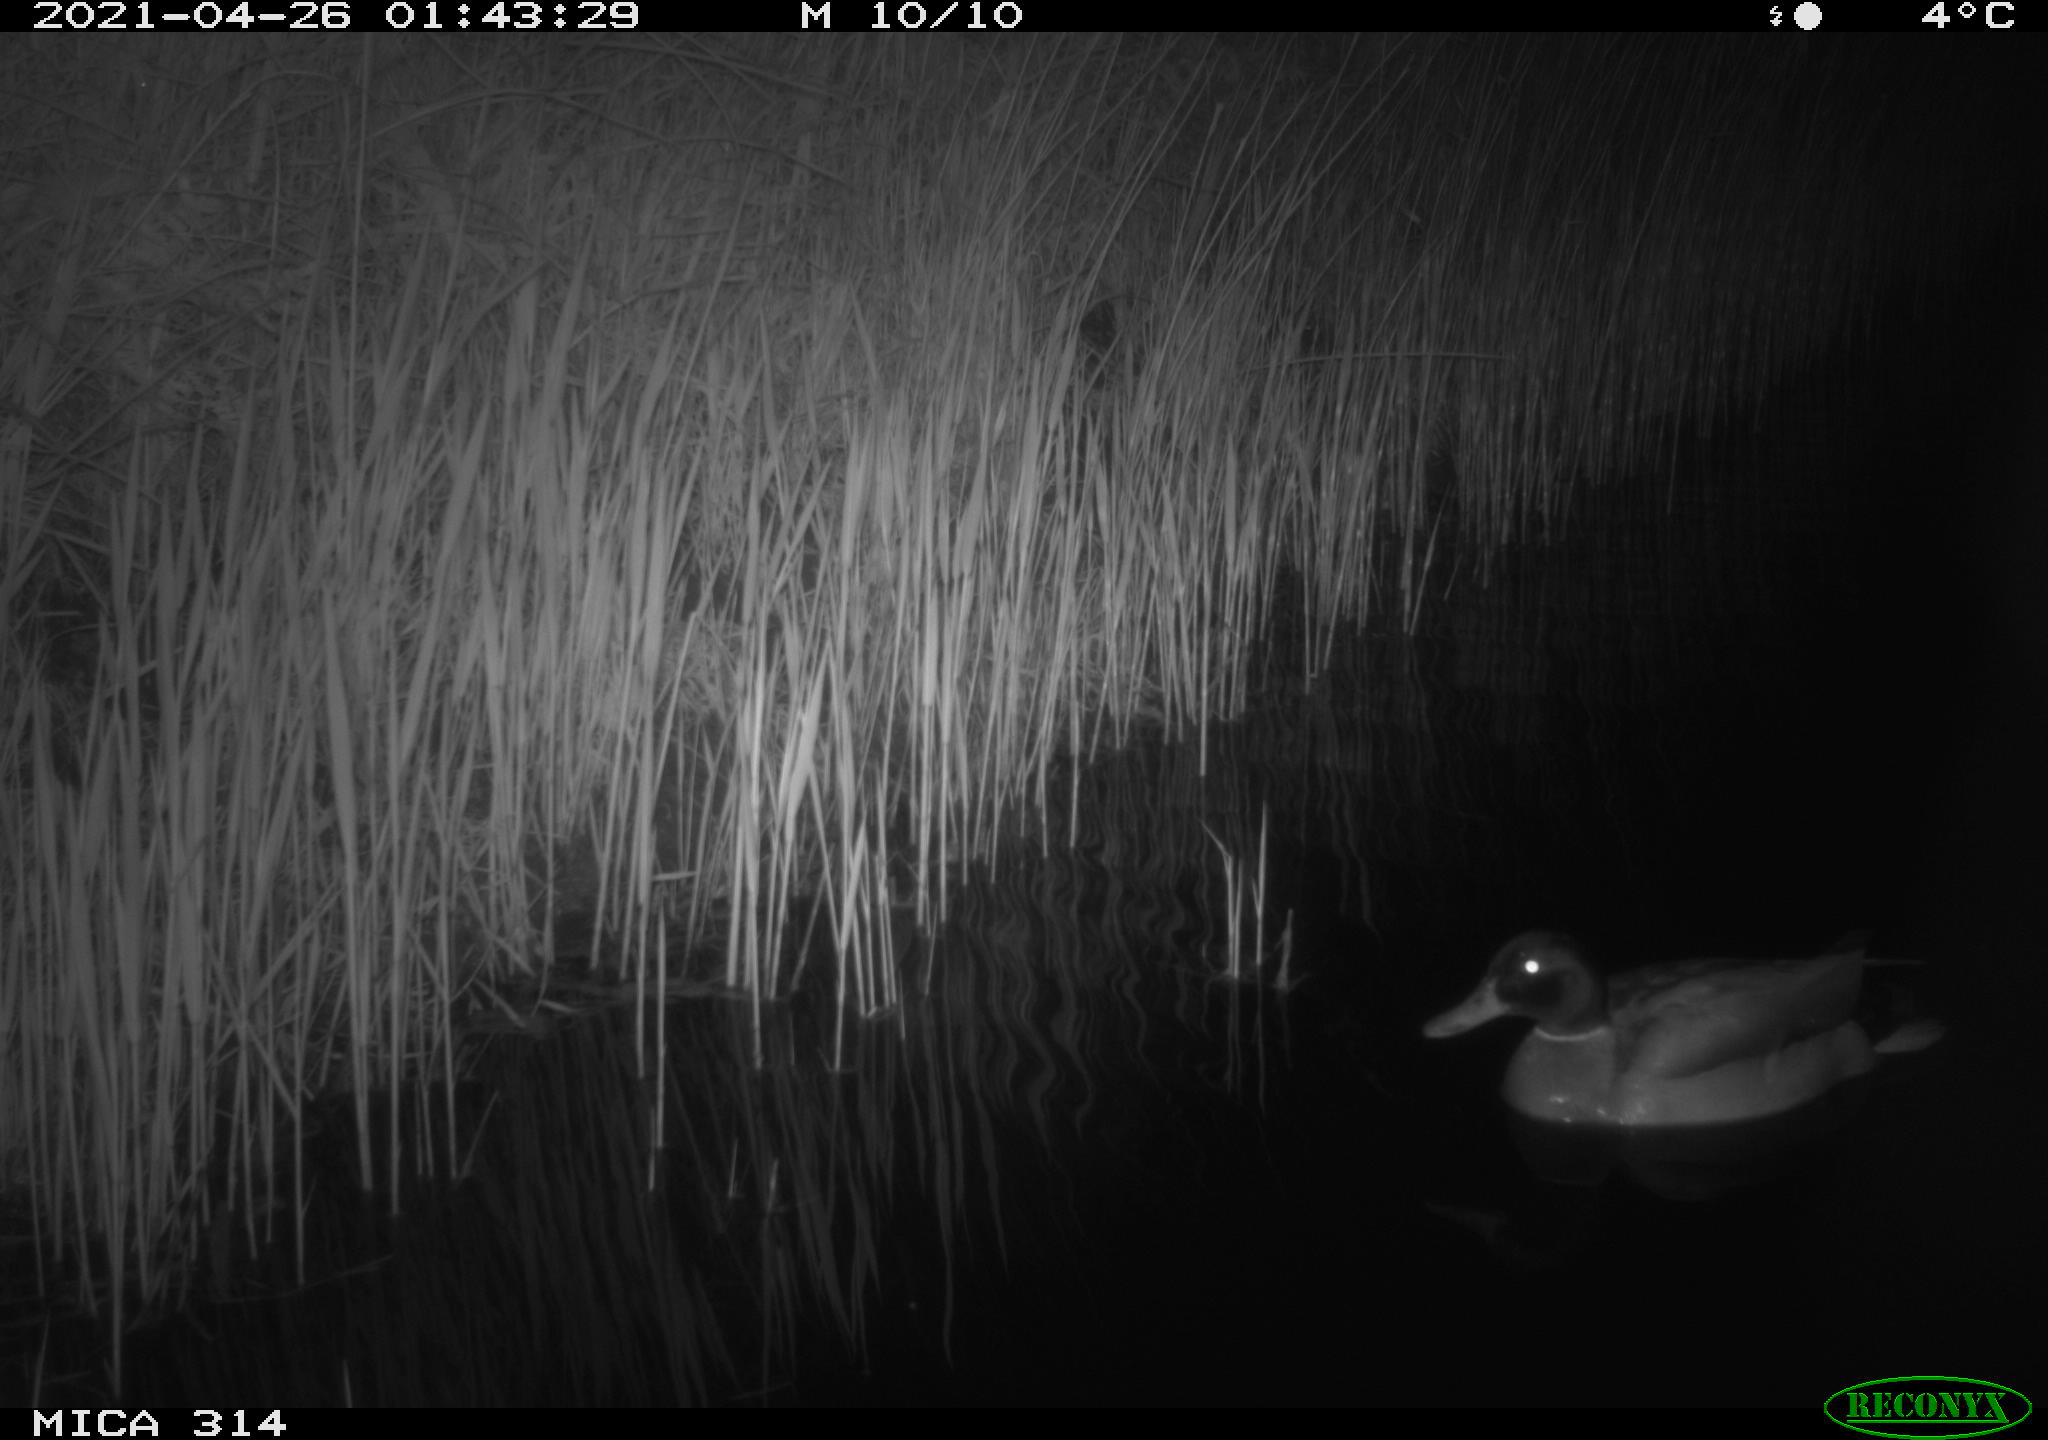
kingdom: Animalia
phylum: Chordata
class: Aves
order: Anseriformes
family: Anatidae
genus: Anas
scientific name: Anas platyrhynchos
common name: Mallard
